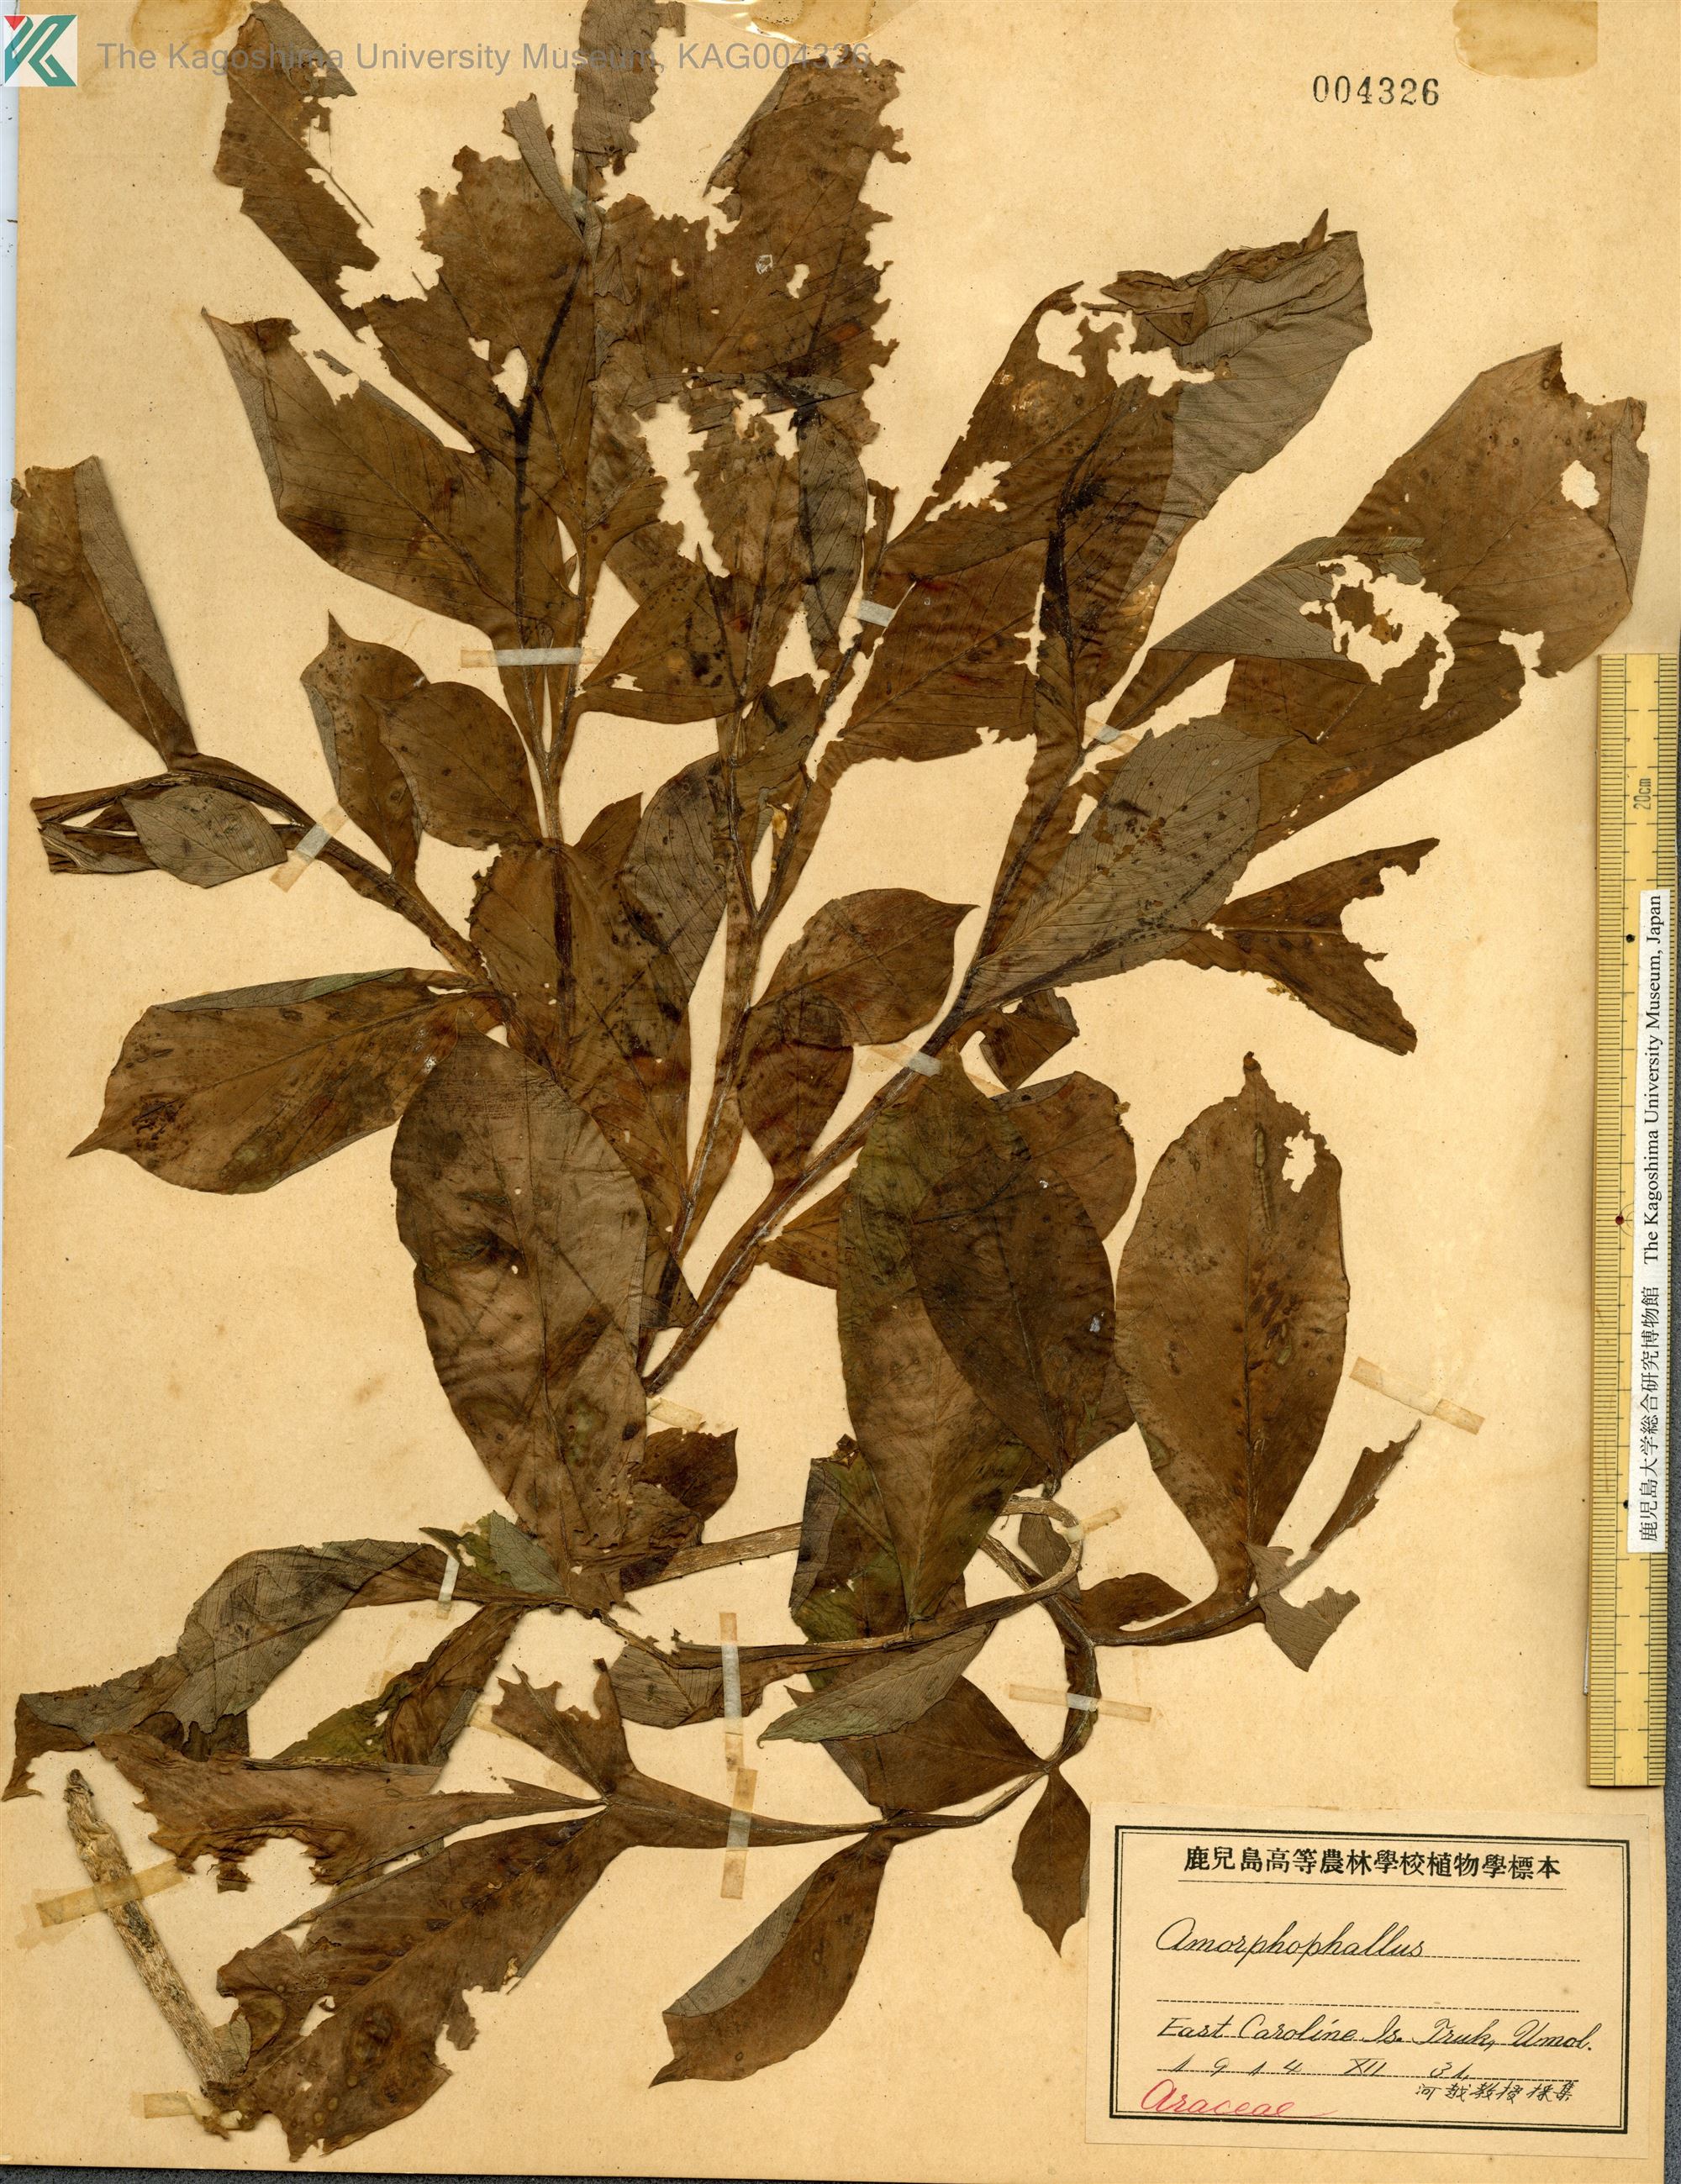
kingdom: Plantae
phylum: Tracheophyta
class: Liliopsida
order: Alismatales
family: Araceae
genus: Amorphophallus
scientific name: Amorphophallus
